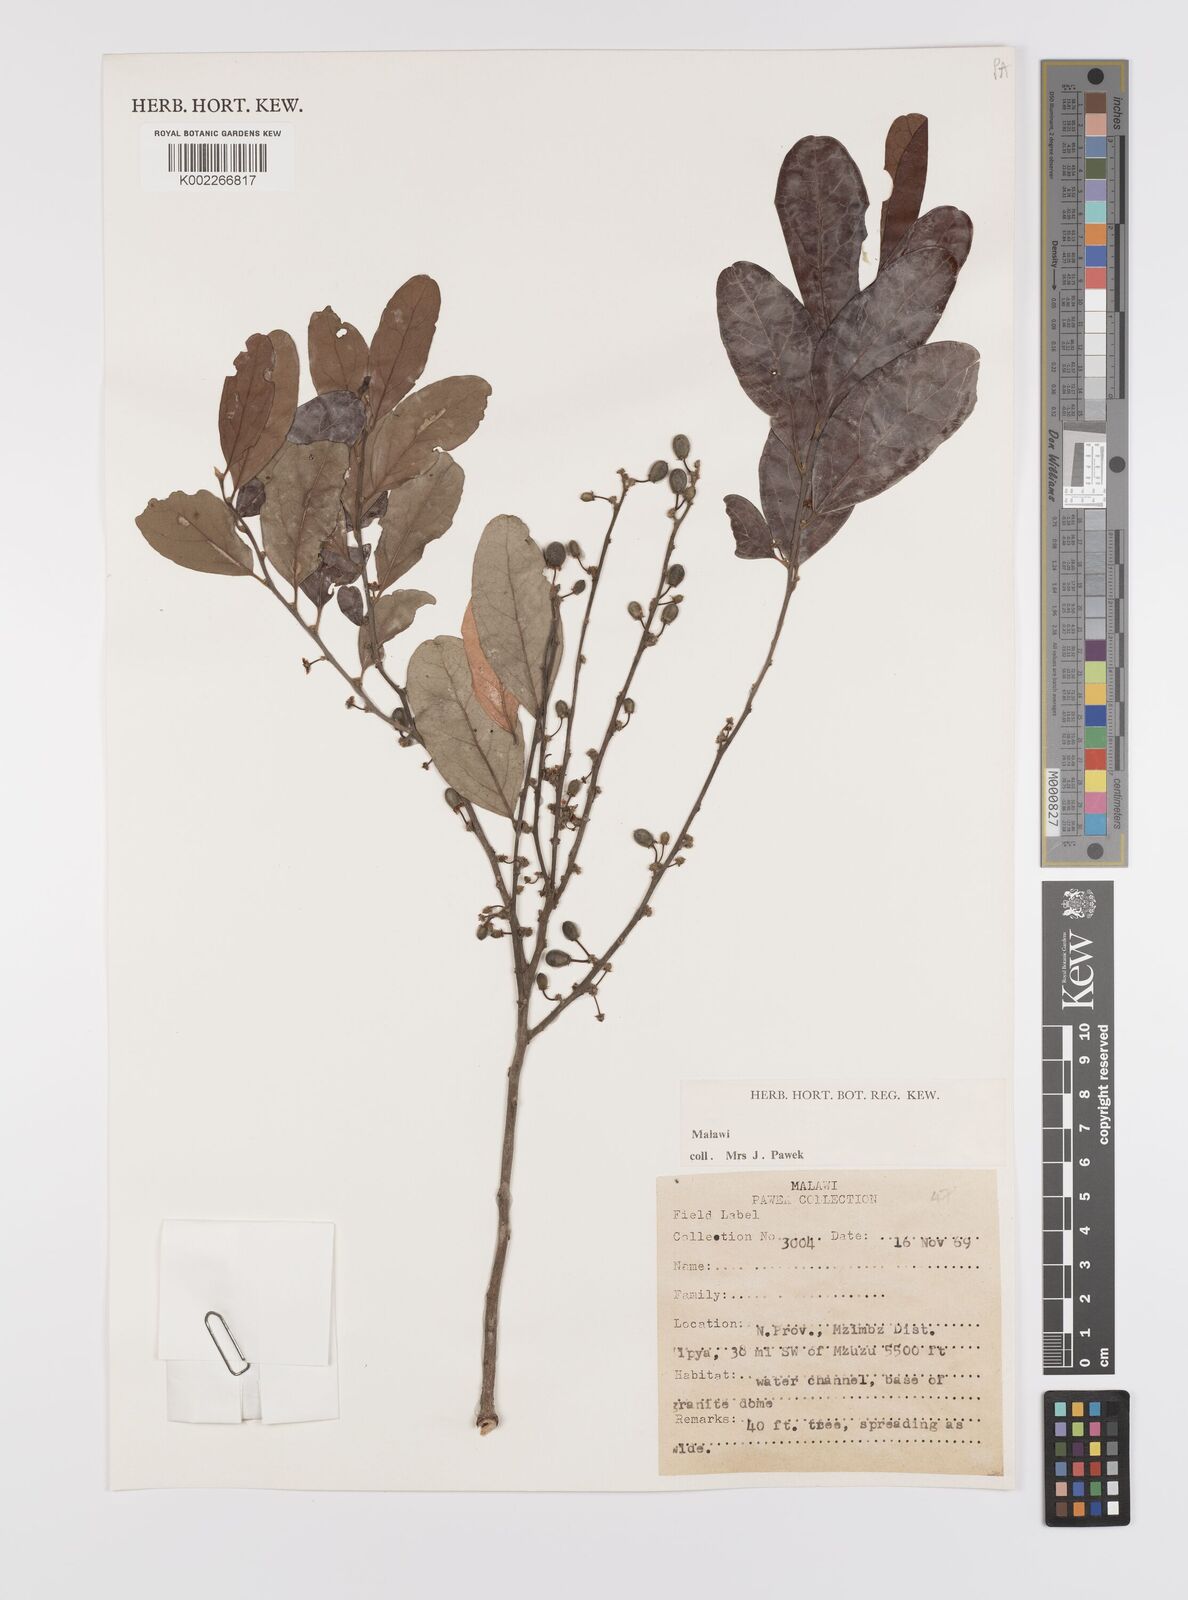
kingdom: Plantae
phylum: Tracheophyta
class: Magnoliopsida
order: Celastrales
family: Celastraceae
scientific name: Celastraceae
